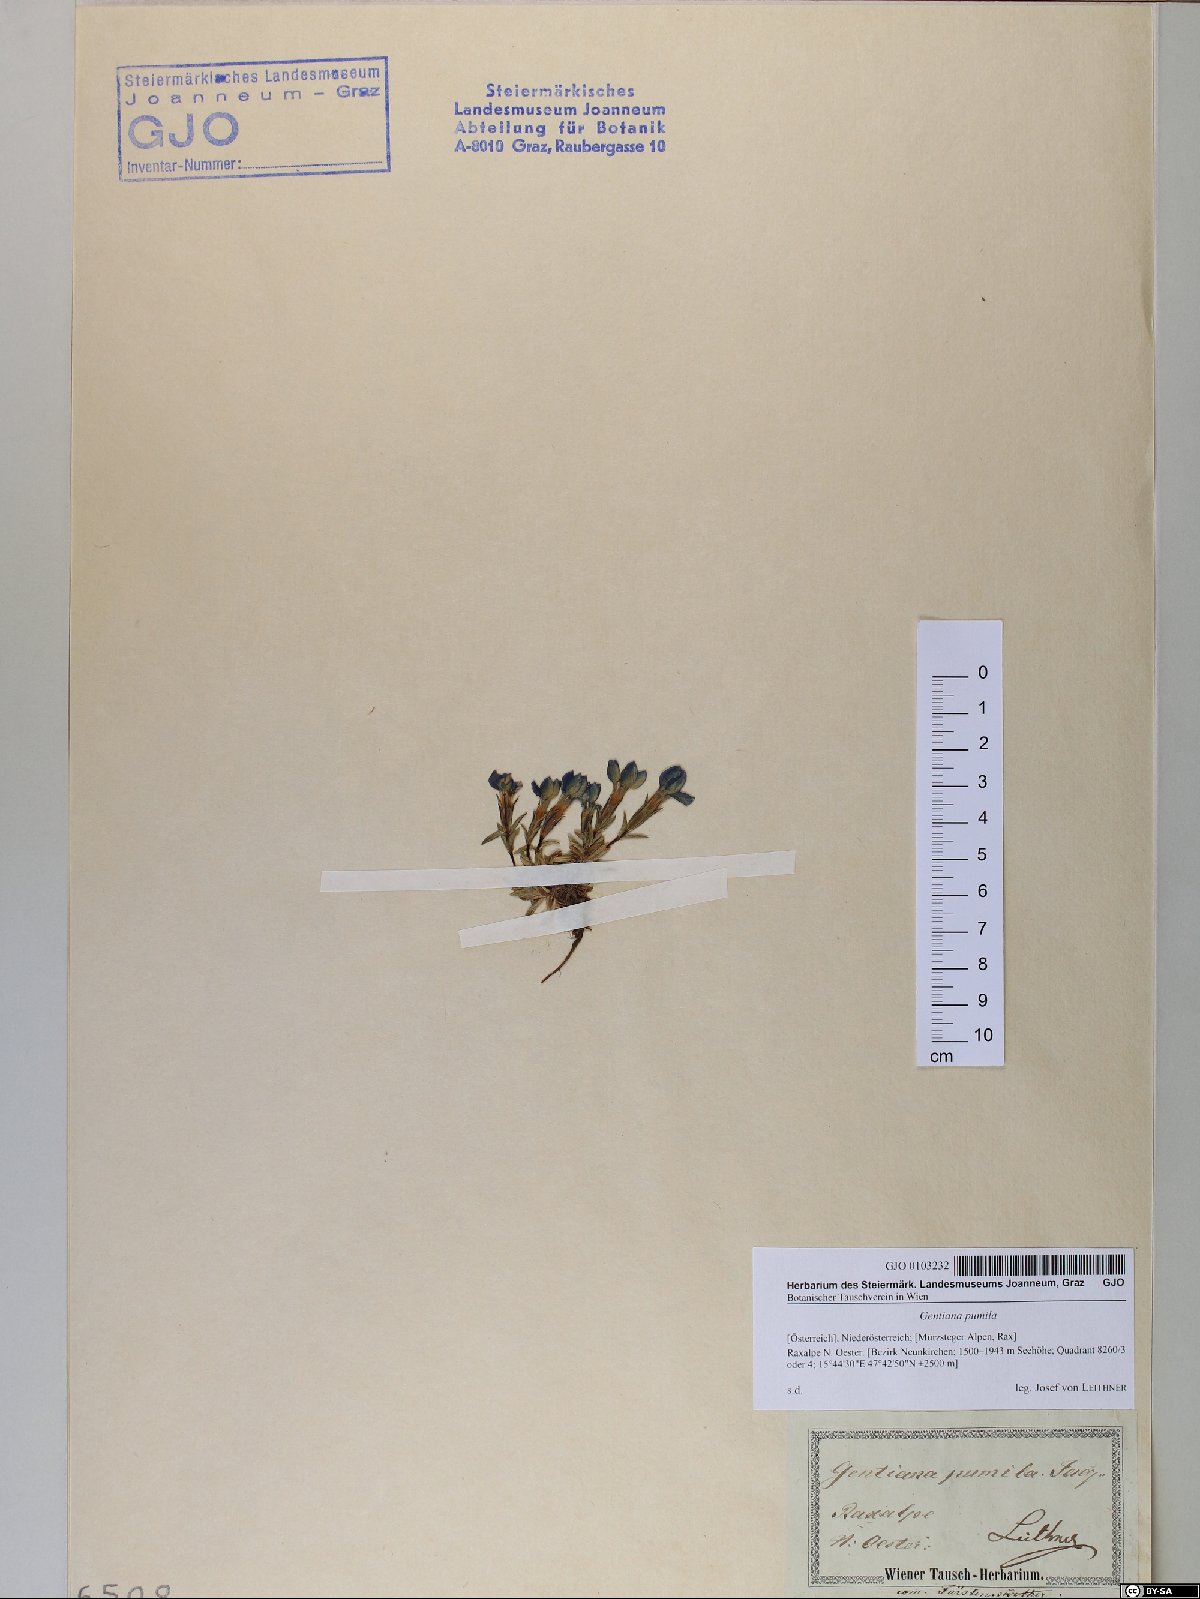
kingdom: Plantae
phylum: Tracheophyta
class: Magnoliopsida
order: Gentianales
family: Gentianaceae
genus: Gentiana
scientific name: Gentiana pumila
